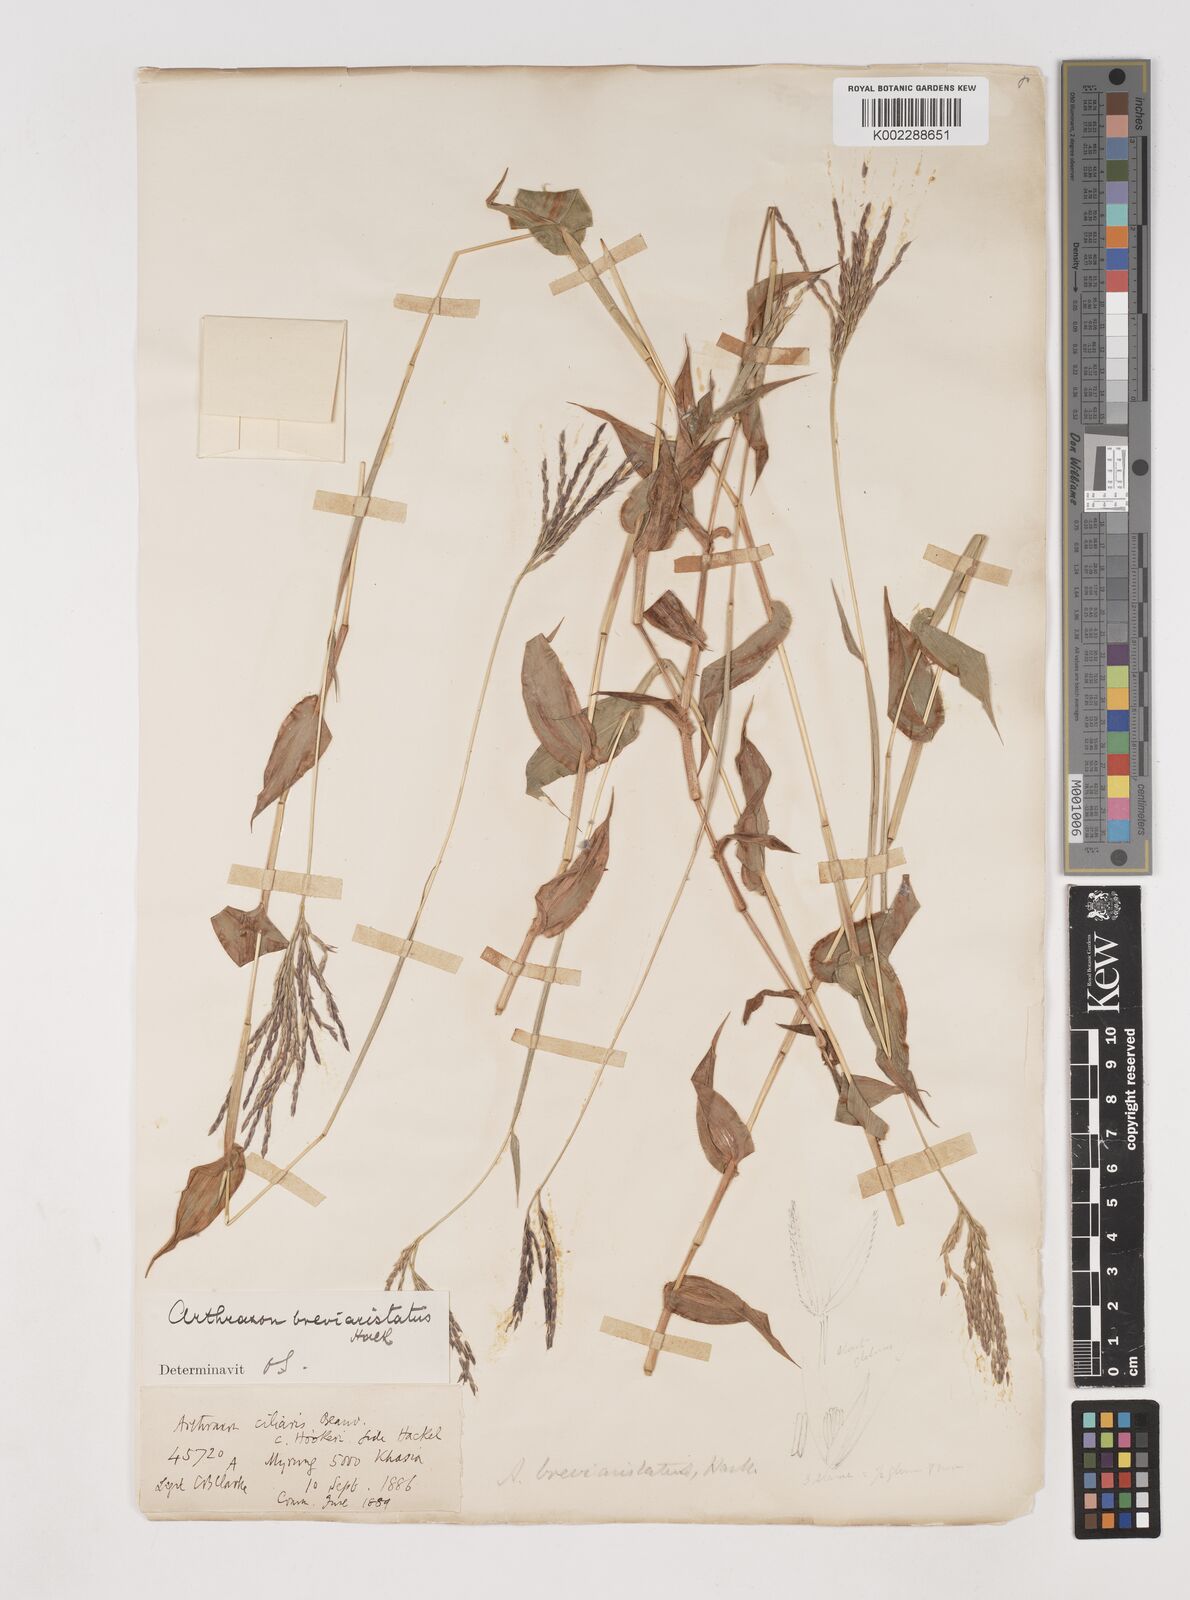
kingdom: Plantae
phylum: Tracheophyta
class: Liliopsida
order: Poales
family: Poaceae
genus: Arthraxon
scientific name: Arthraxon typicus
